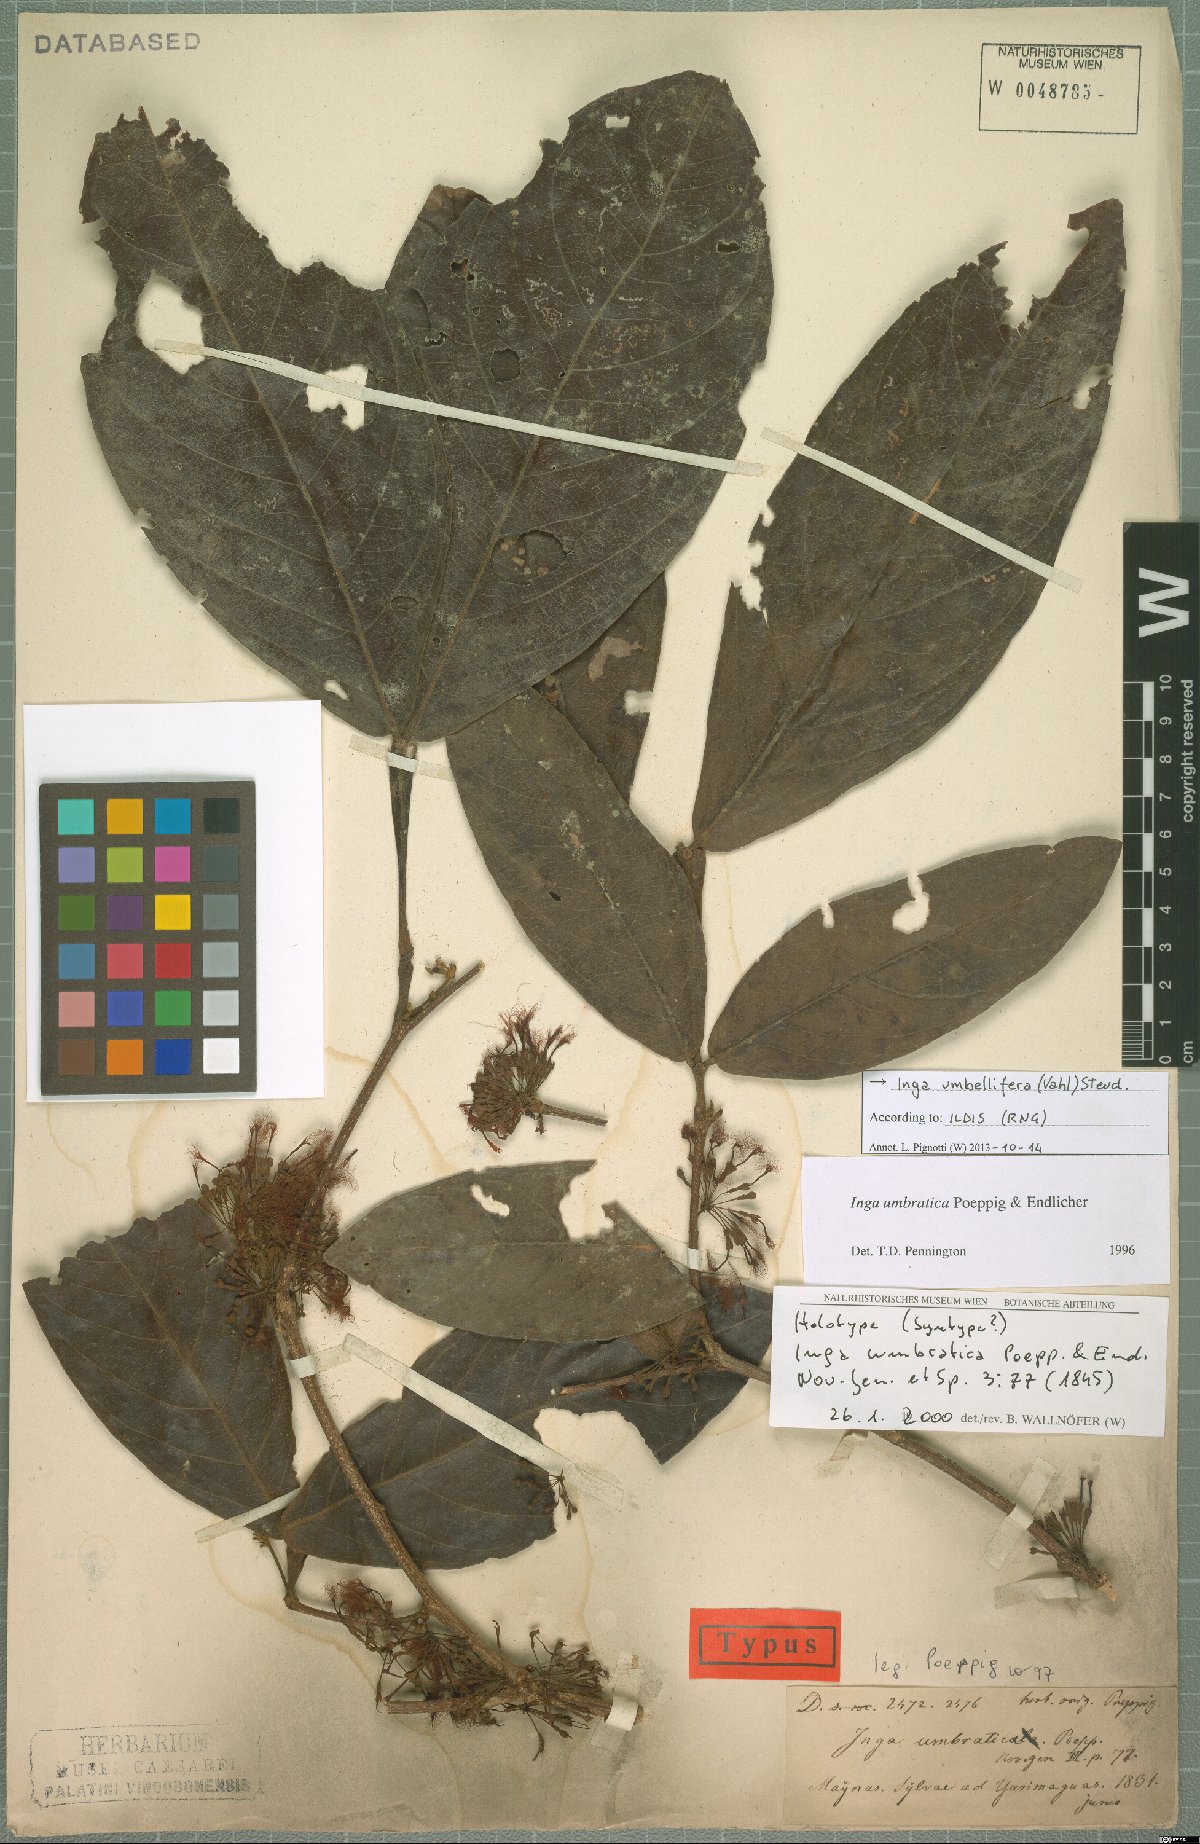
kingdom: Plantae
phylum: Tracheophyta
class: Magnoliopsida
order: Fabales
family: Fabaceae
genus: Inga
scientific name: Inga umbellifera
